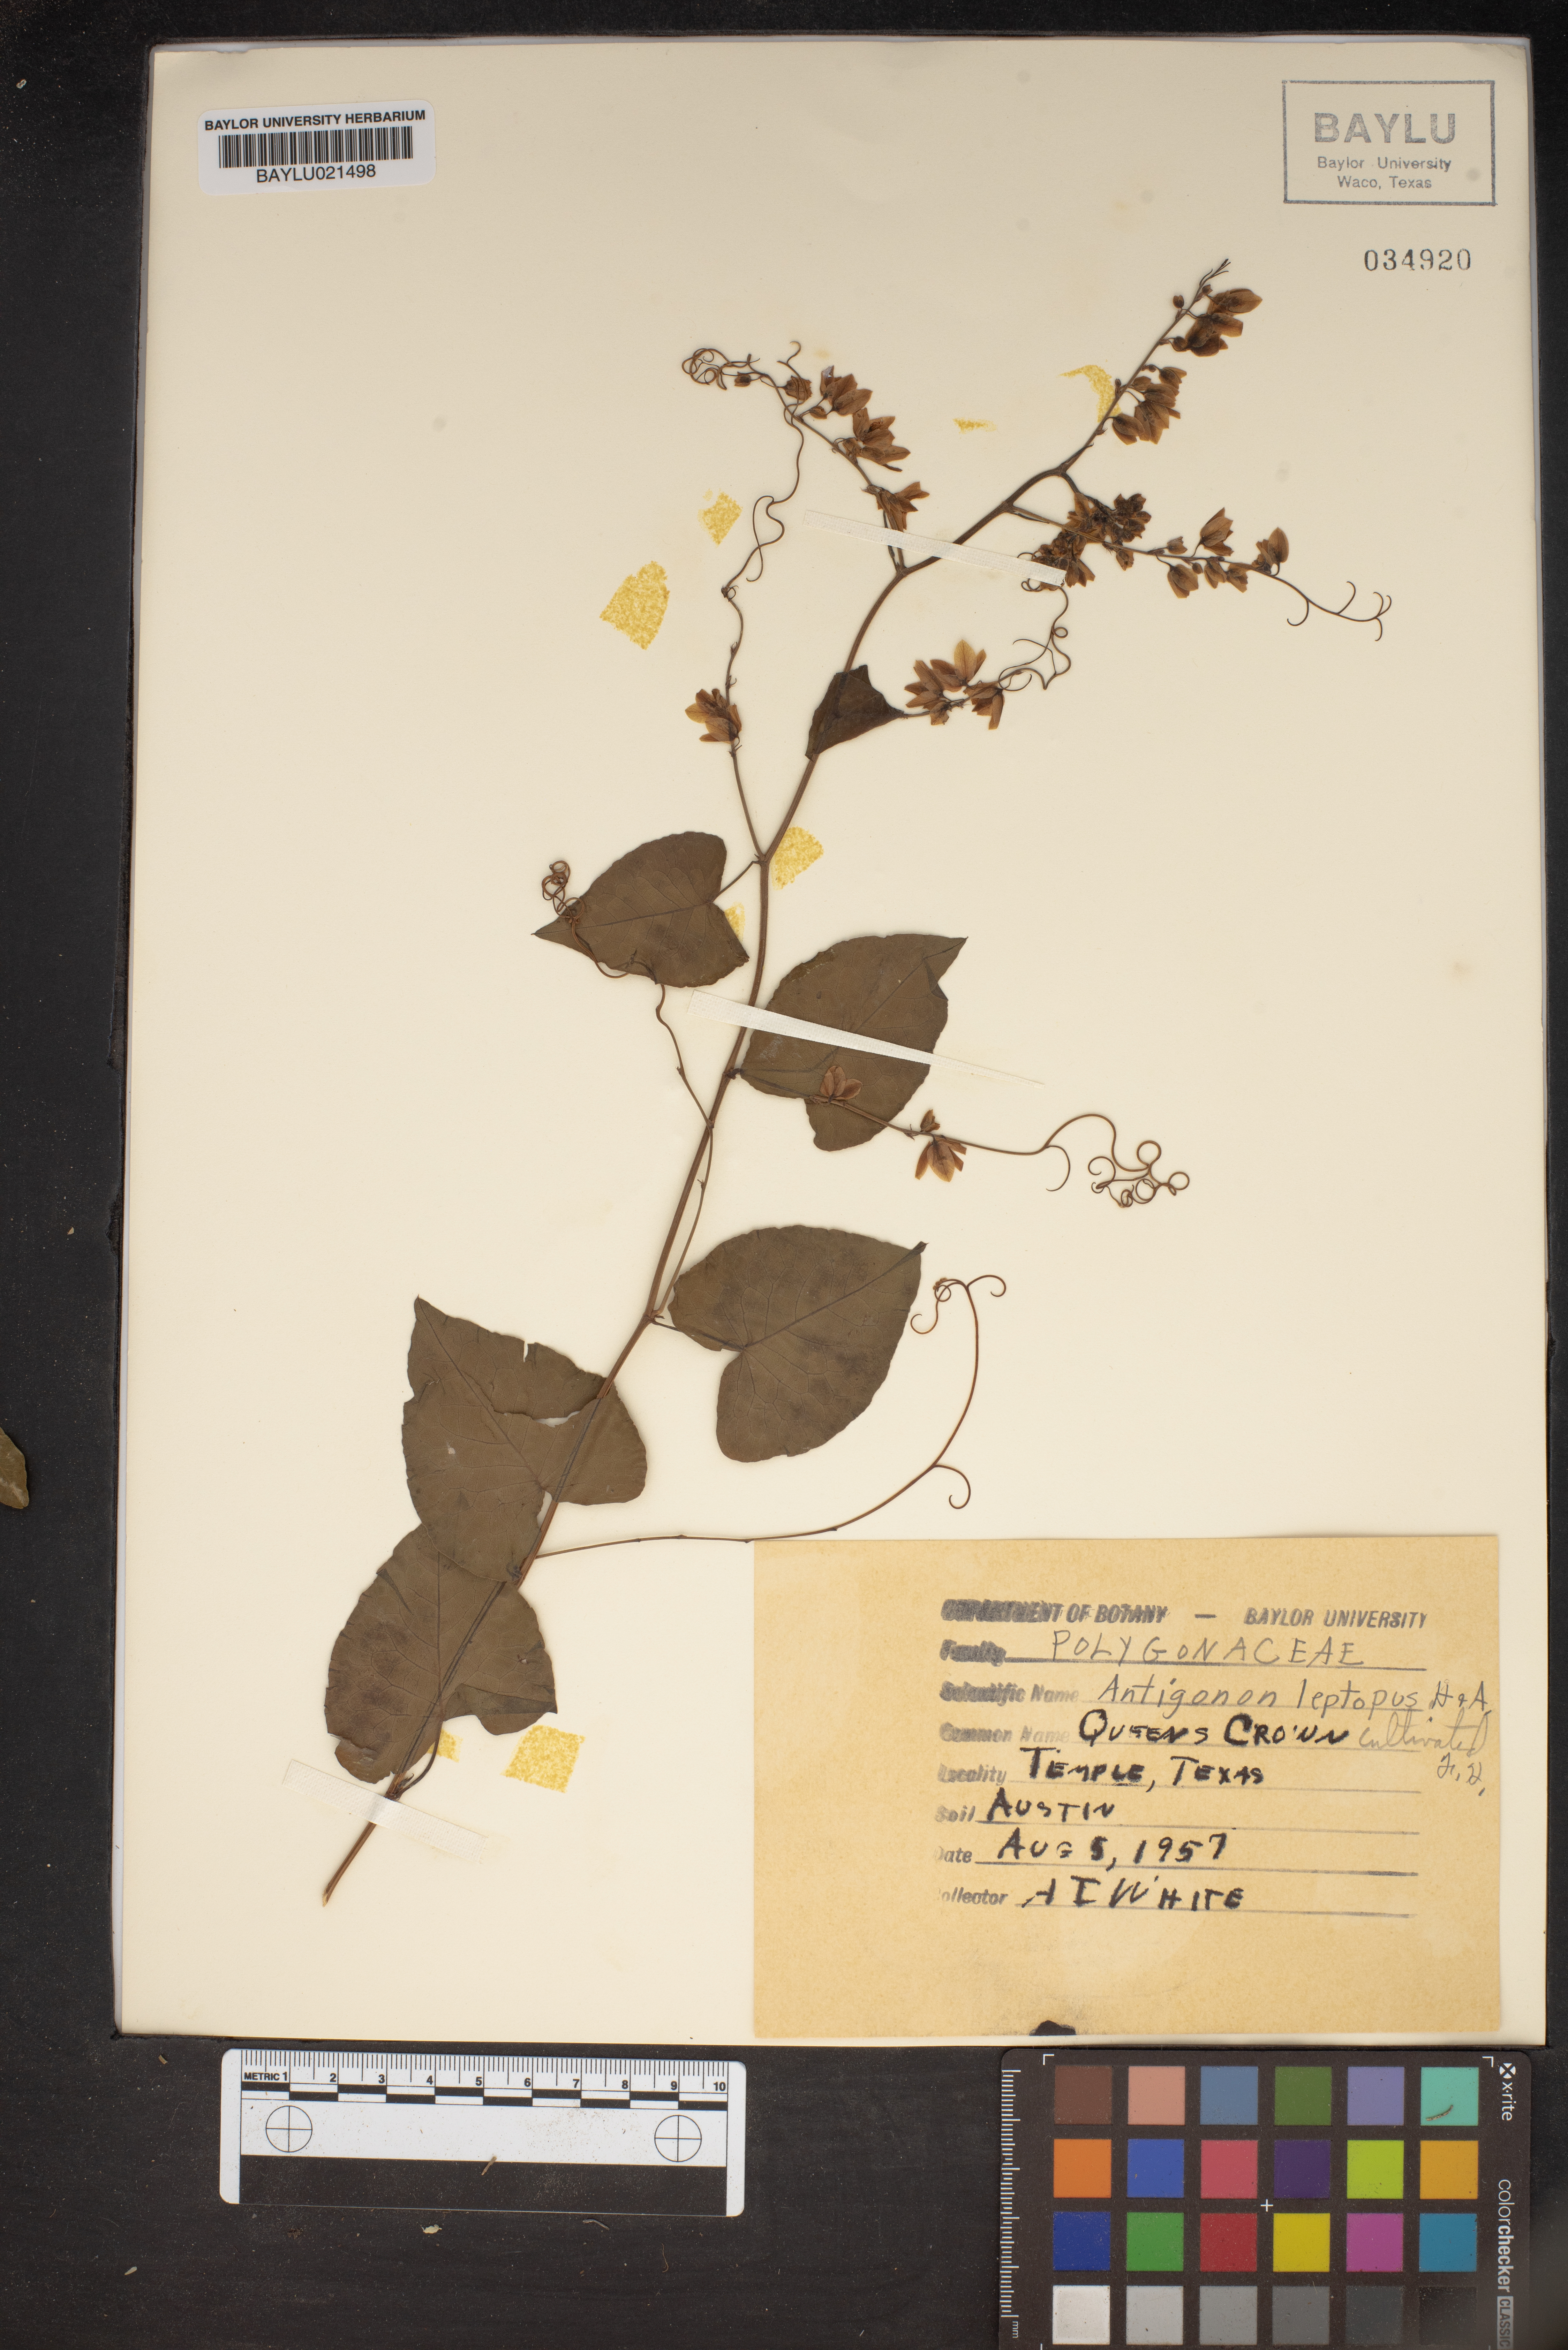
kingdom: Plantae
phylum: Tracheophyta
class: Magnoliopsida
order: Caryophyllales
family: Polygonaceae
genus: Antigonon
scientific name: Antigonon leptopus
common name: Coral vine
